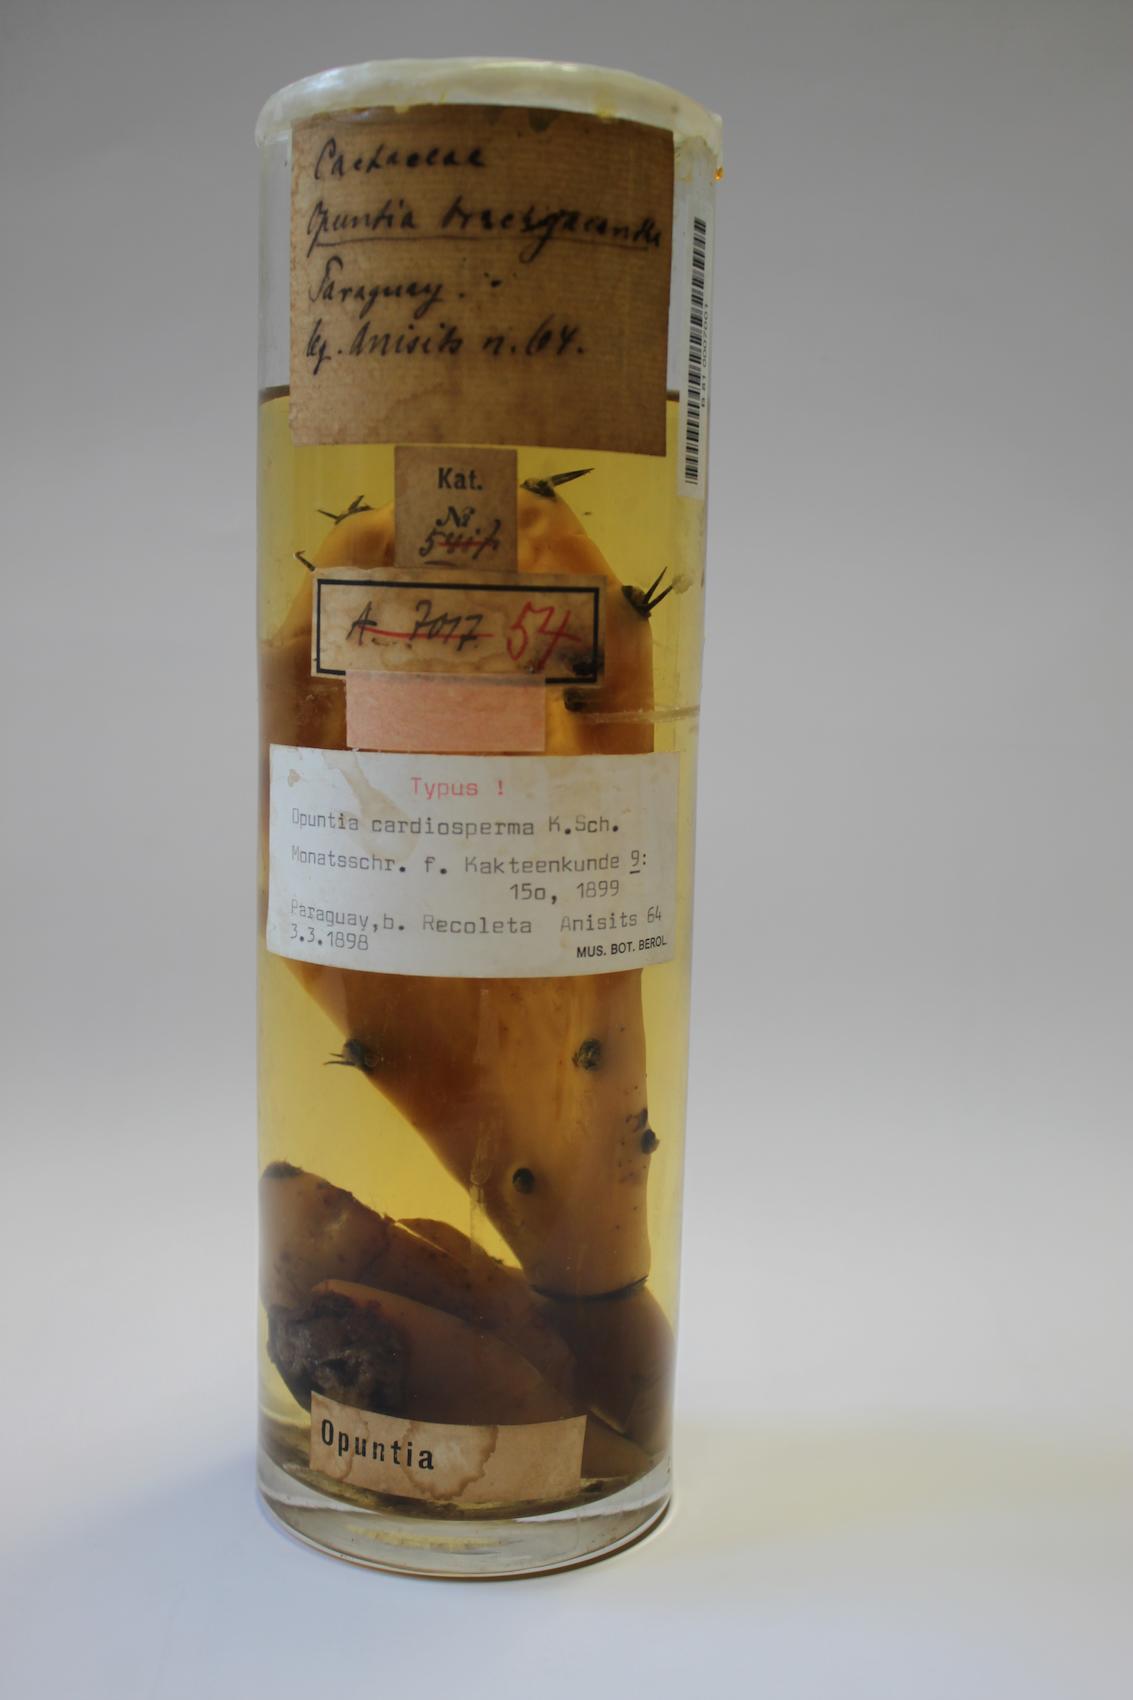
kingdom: Plantae
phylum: Tracheophyta
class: Magnoliopsida
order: Caryophyllales
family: Cactaceae
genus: Opuntia
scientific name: Opuntia elata
